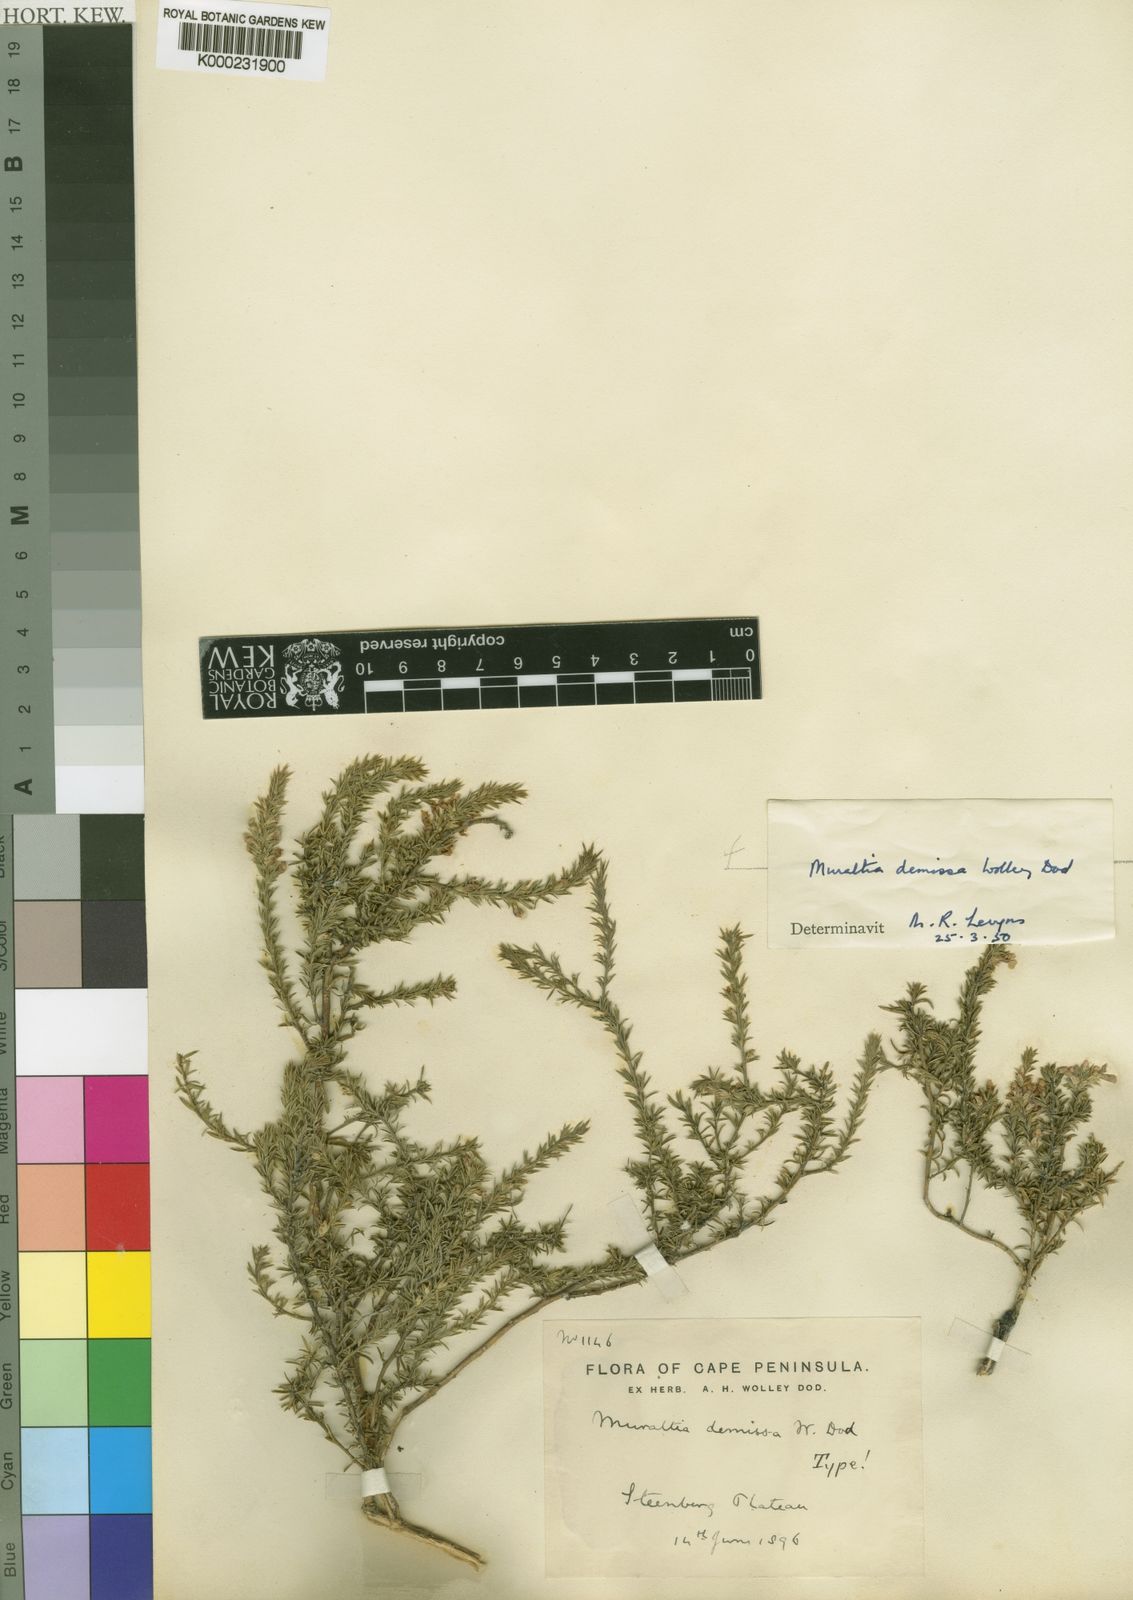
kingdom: Plantae
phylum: Tracheophyta
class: Magnoliopsida
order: Fabales
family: Polygalaceae
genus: Muraltia
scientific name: Muraltia demissa
